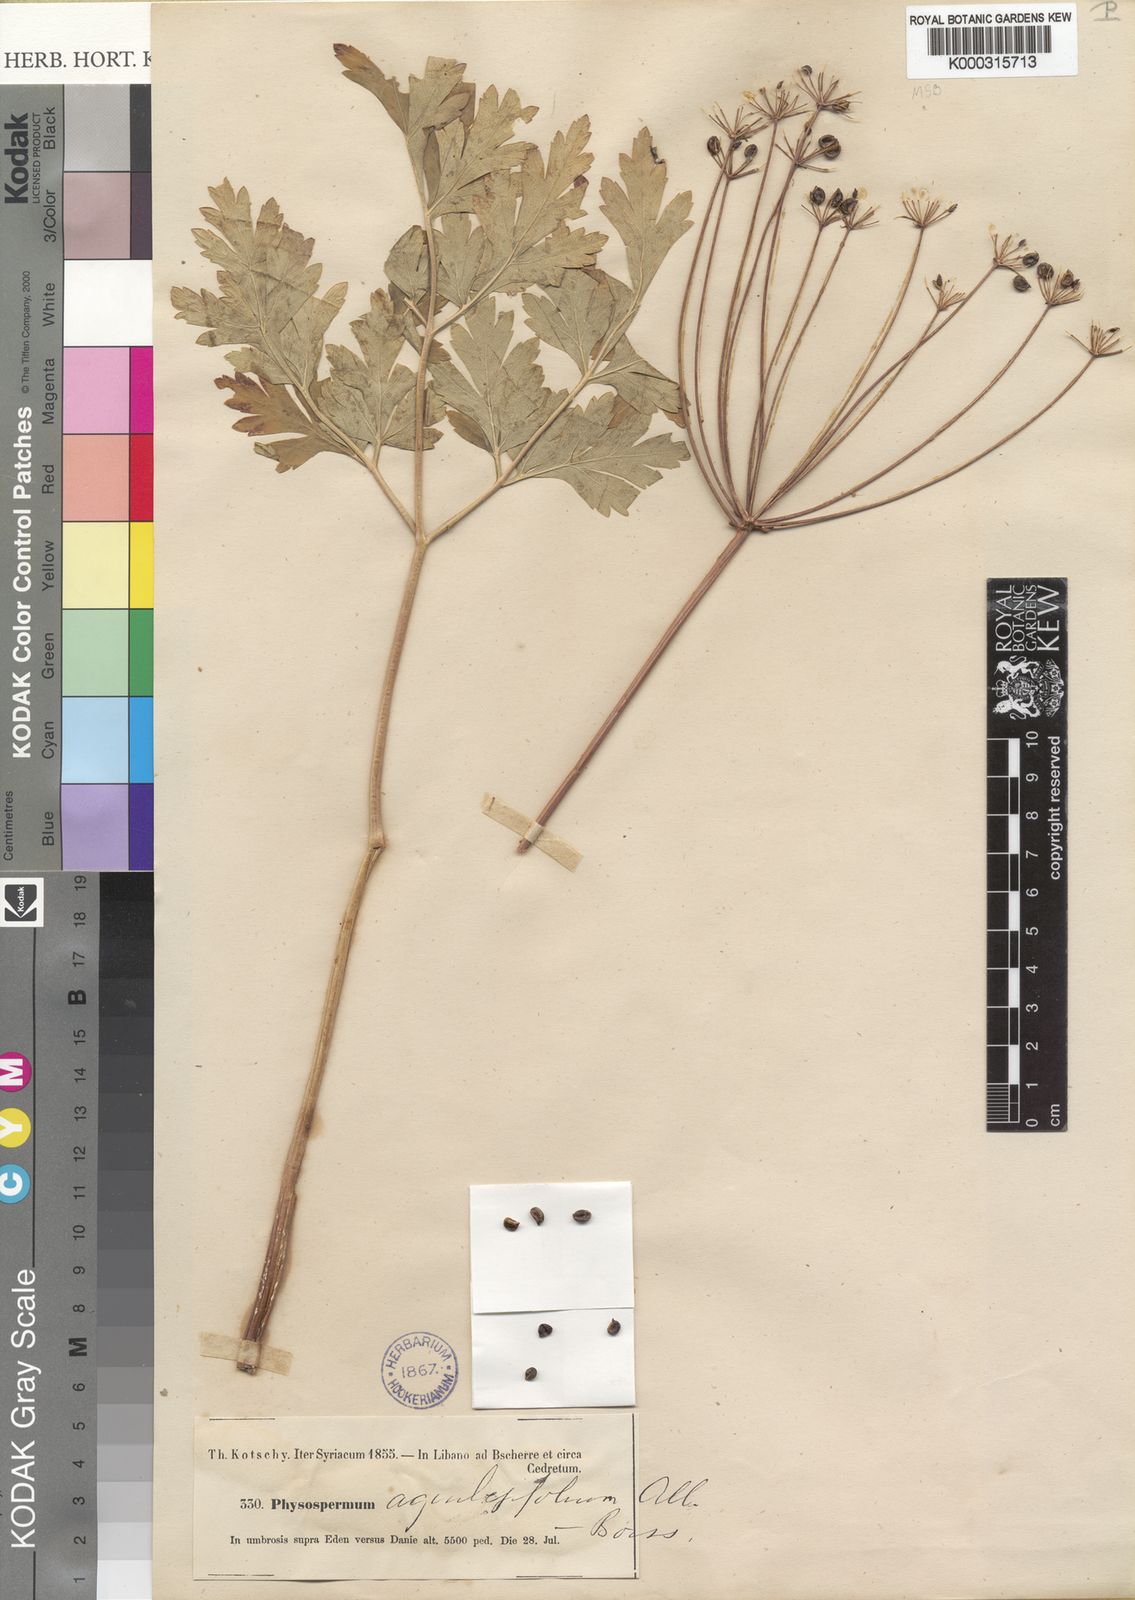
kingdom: Plantae
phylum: Tracheophyta
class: Magnoliopsida
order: Apiales
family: Apiaceae
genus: Physospermum
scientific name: Physospermum cornubiense
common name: Bladderseed
